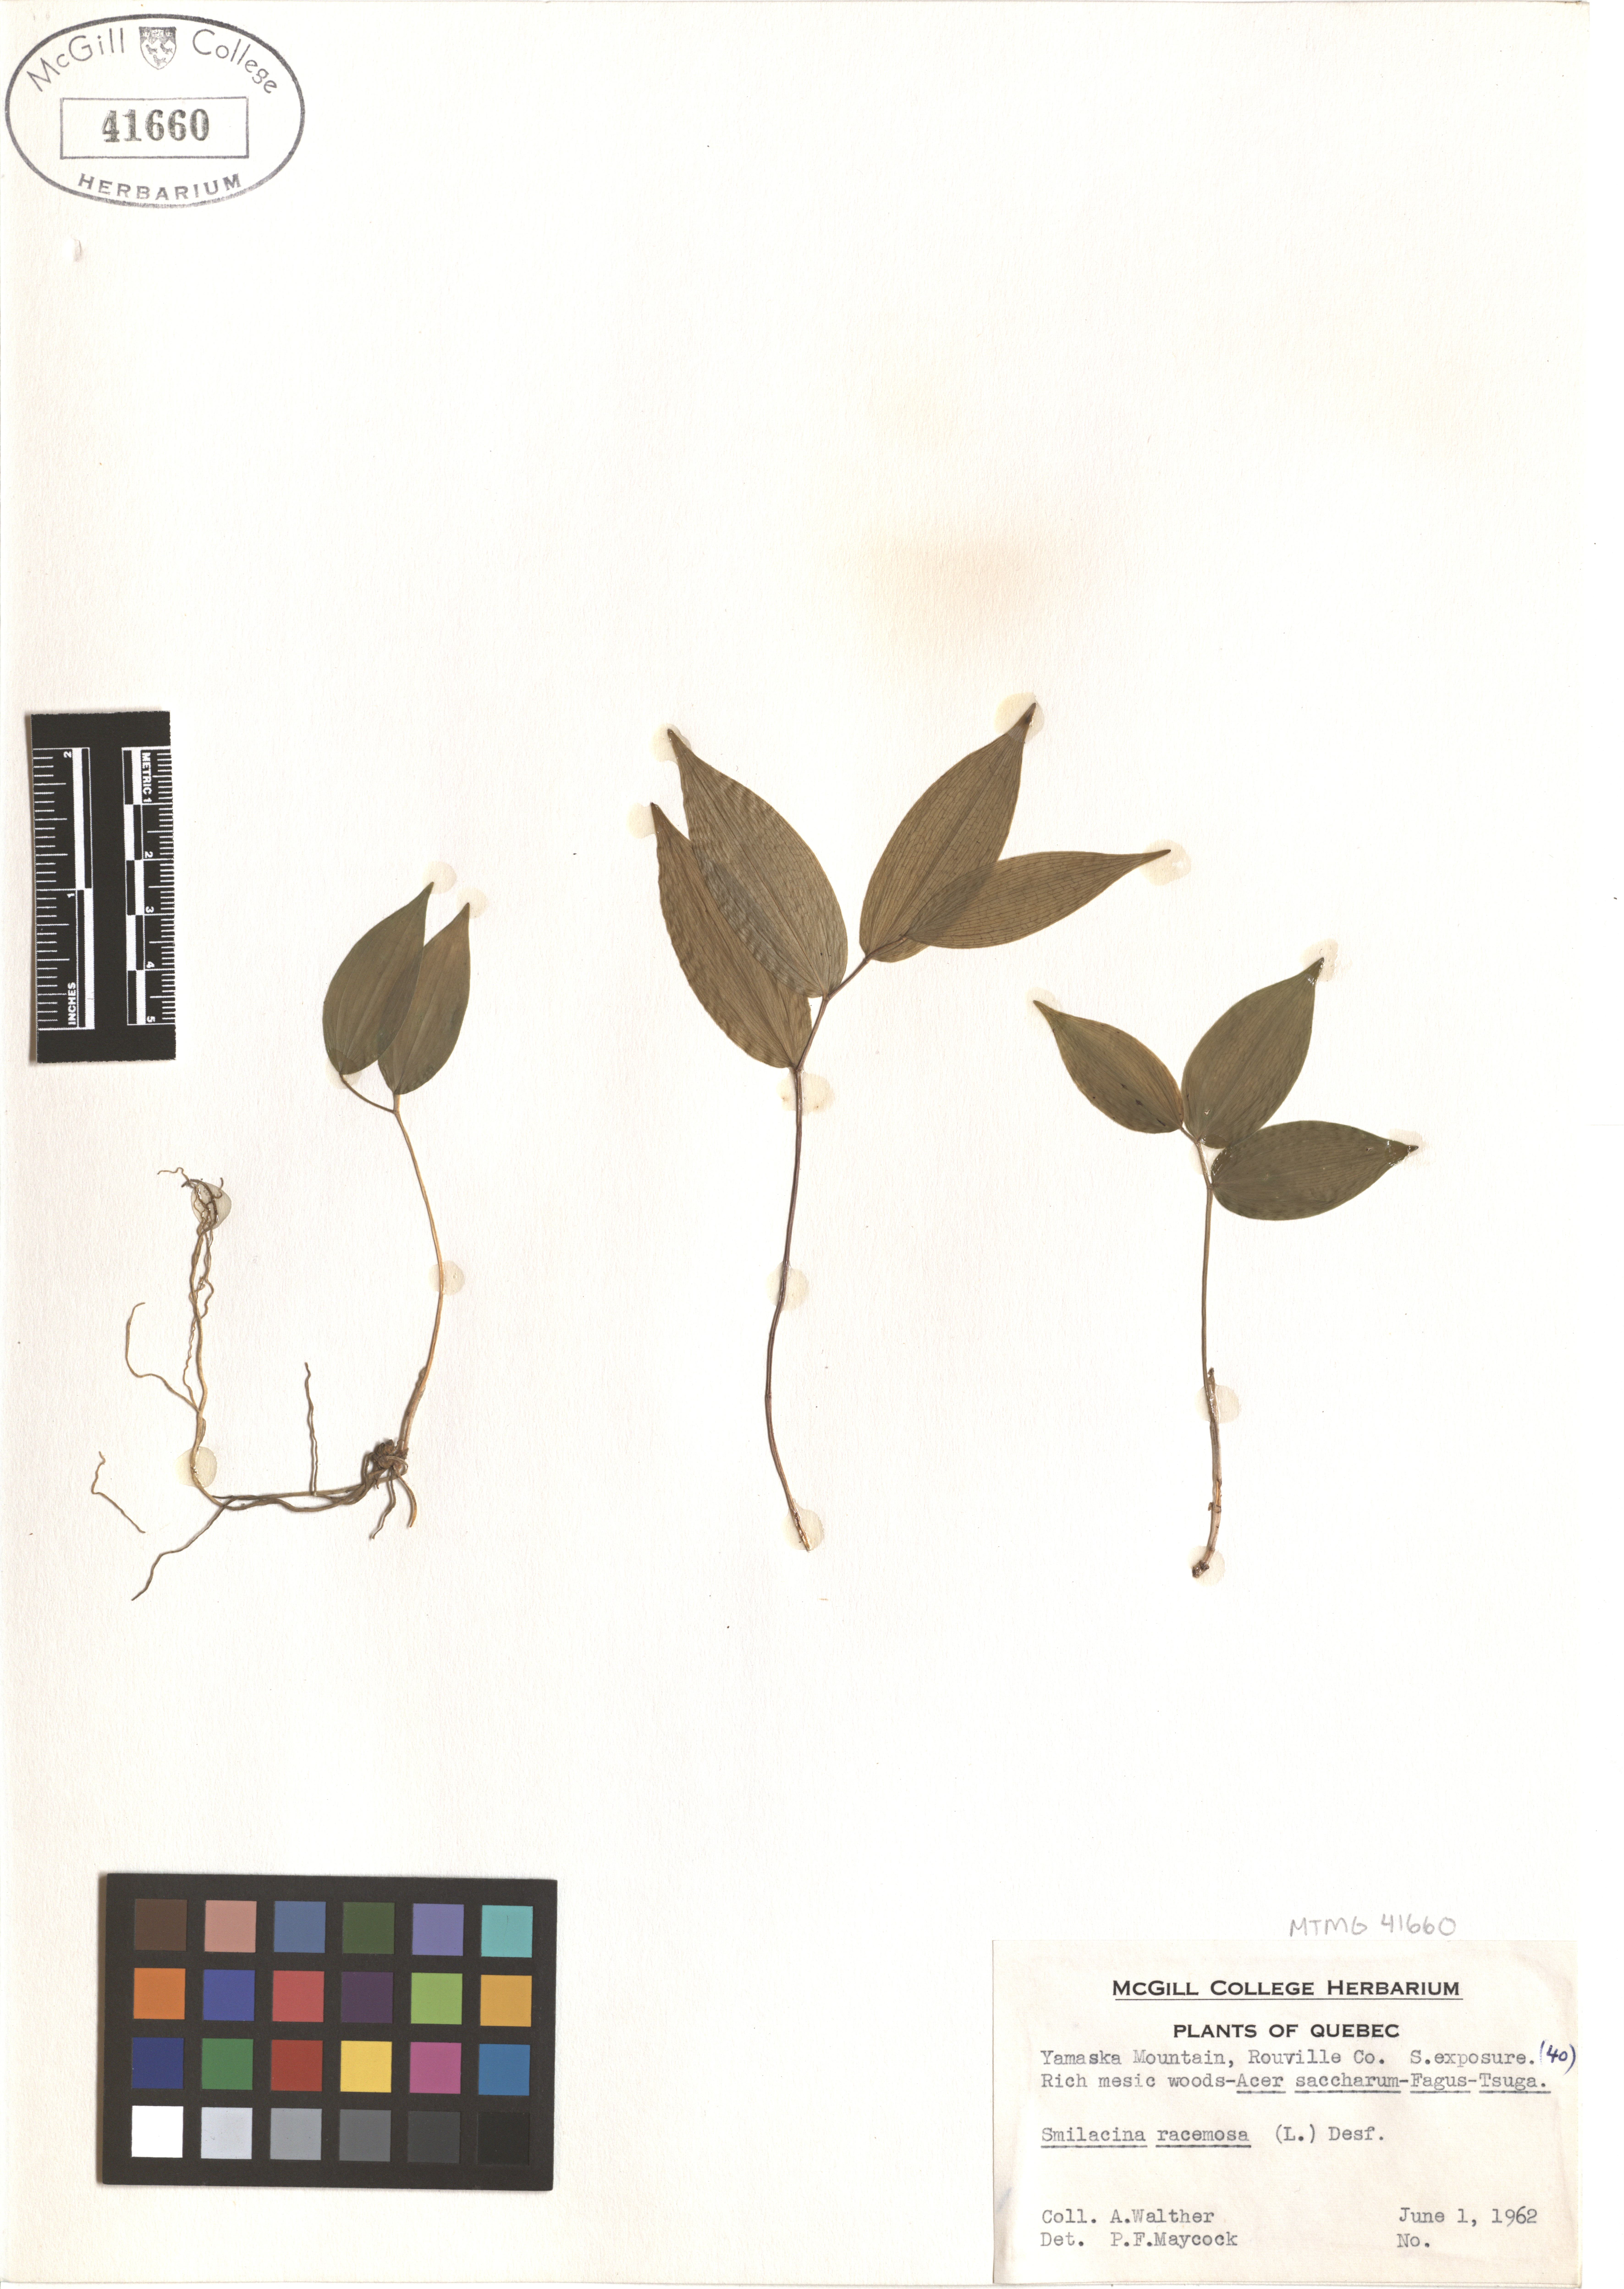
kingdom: Plantae
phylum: Tracheophyta
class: Liliopsida
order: Asparagales
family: Asparagaceae
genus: Maianthemum
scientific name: Maianthemum racemosum
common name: False spikenard
